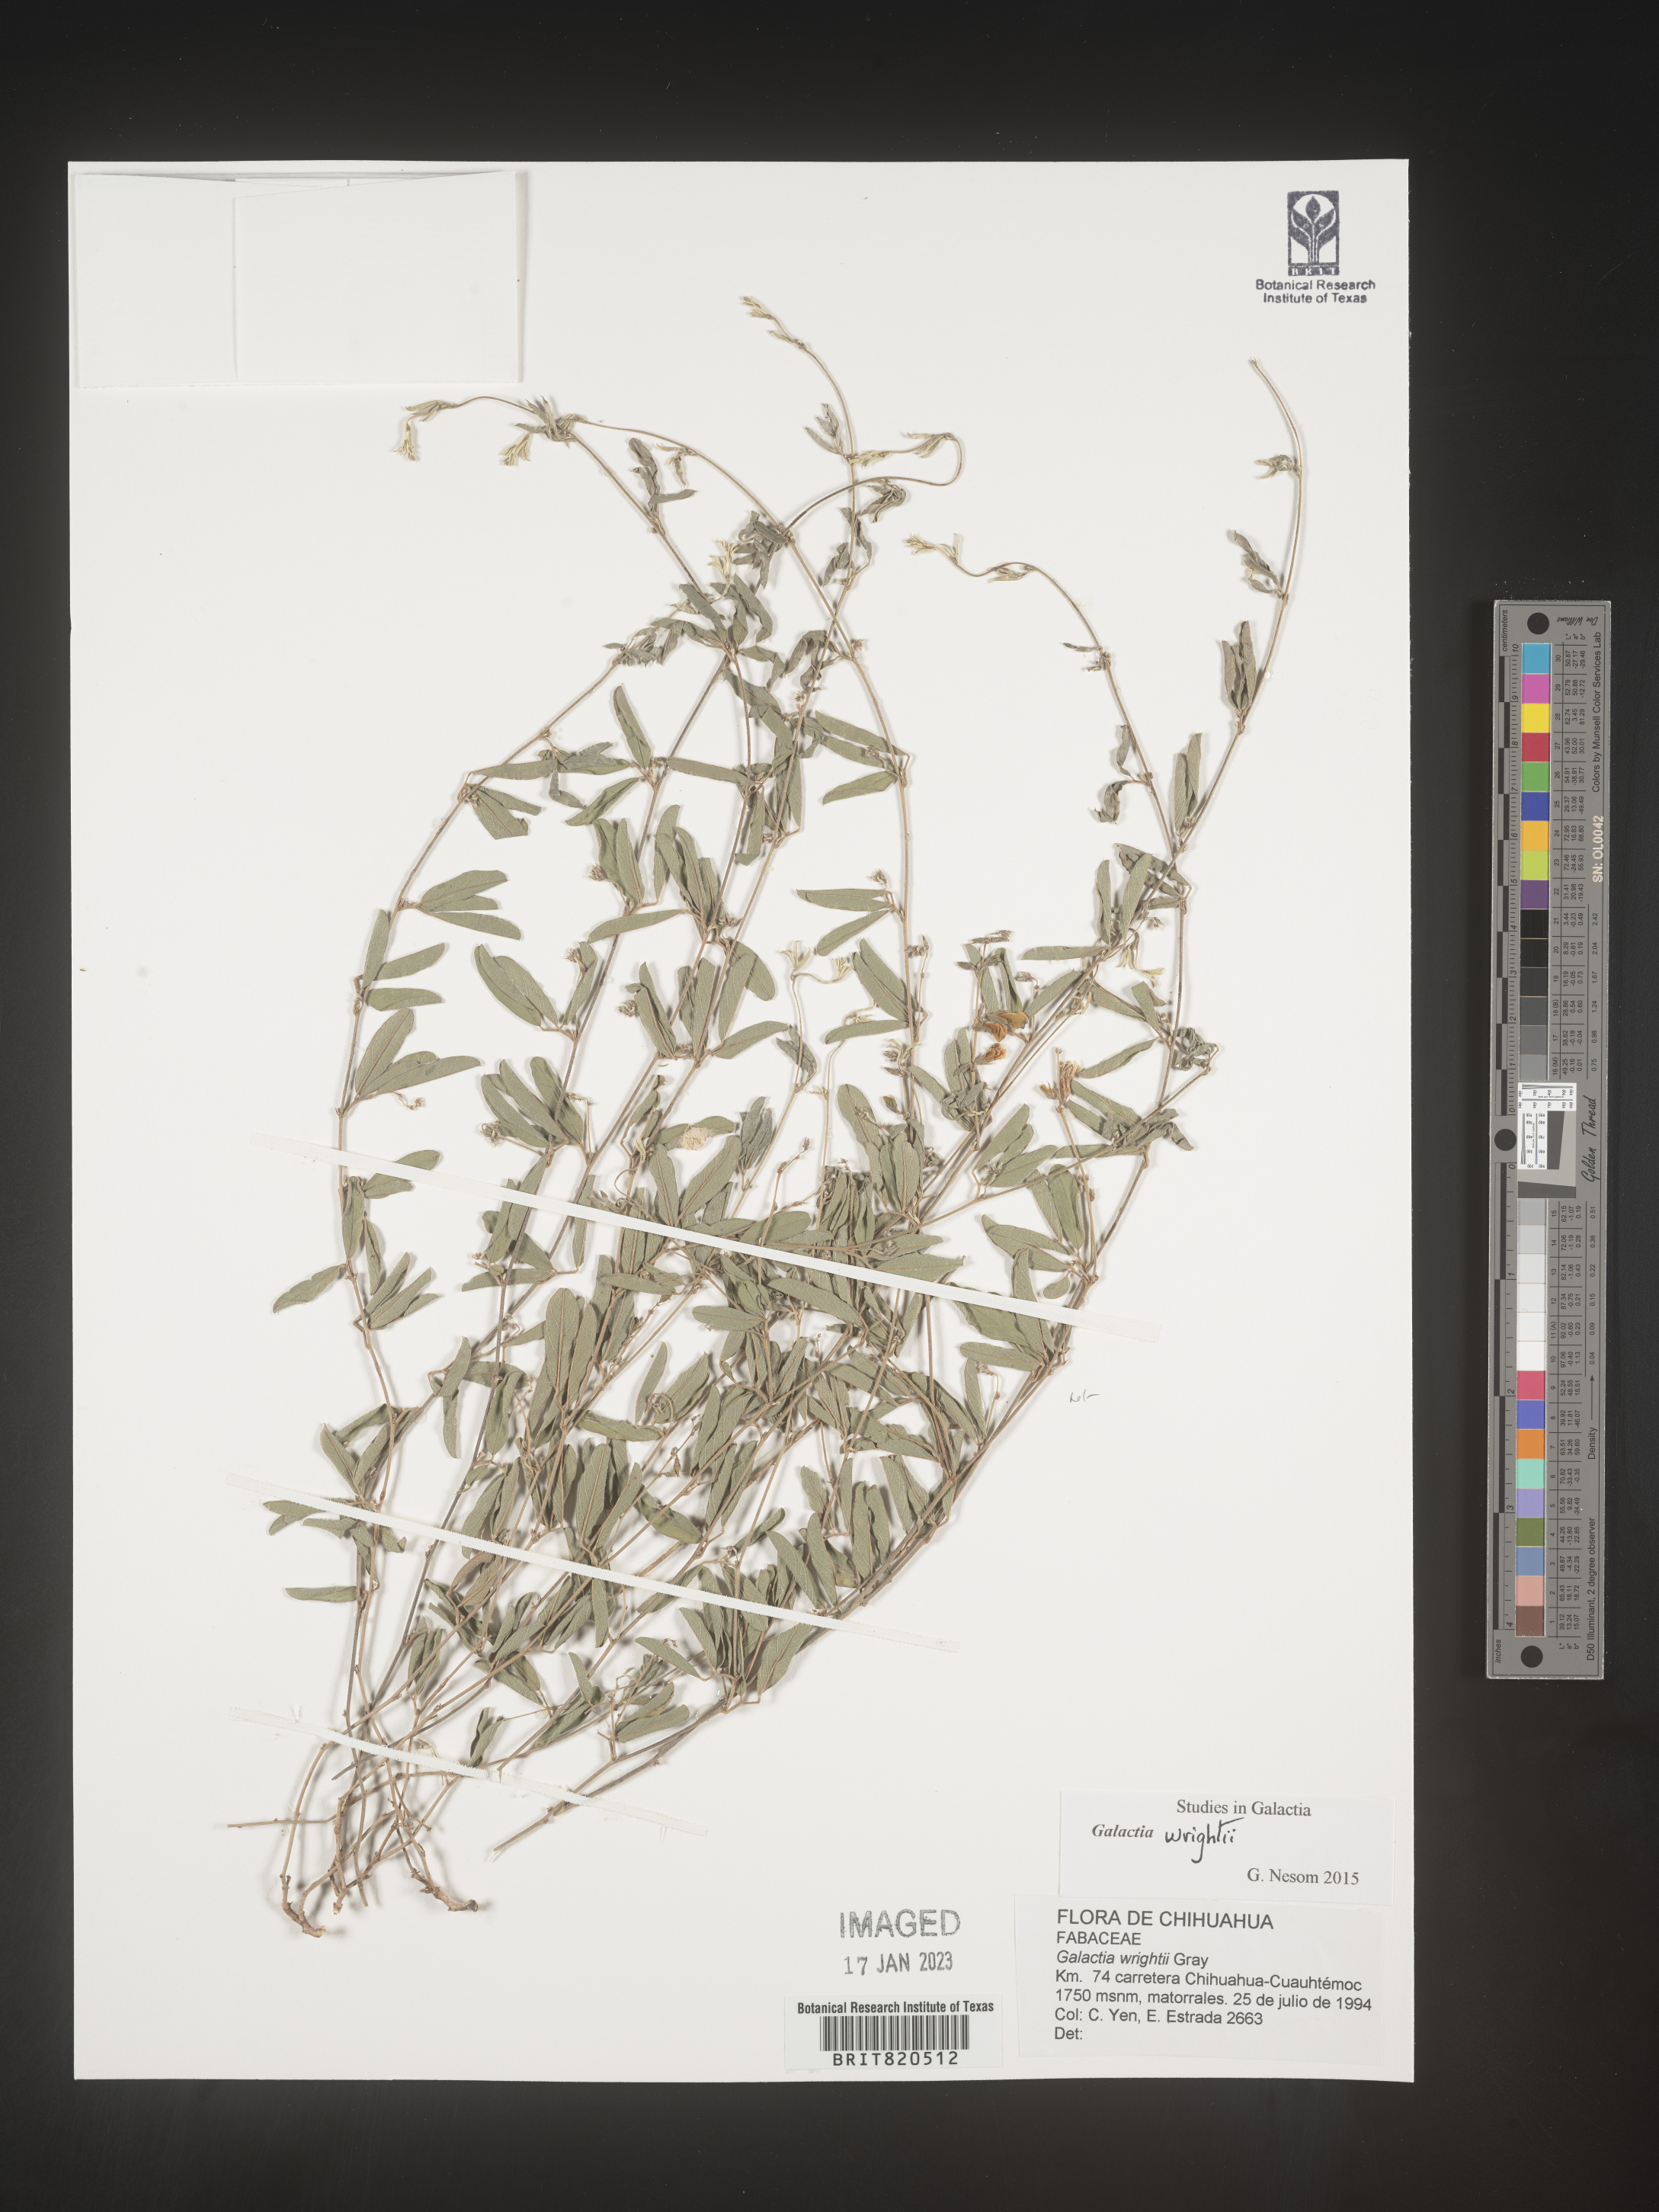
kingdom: Plantae
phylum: Tracheophyta
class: Magnoliopsida
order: Fabales
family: Fabaceae
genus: Galactia
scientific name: Galactia wrightii
